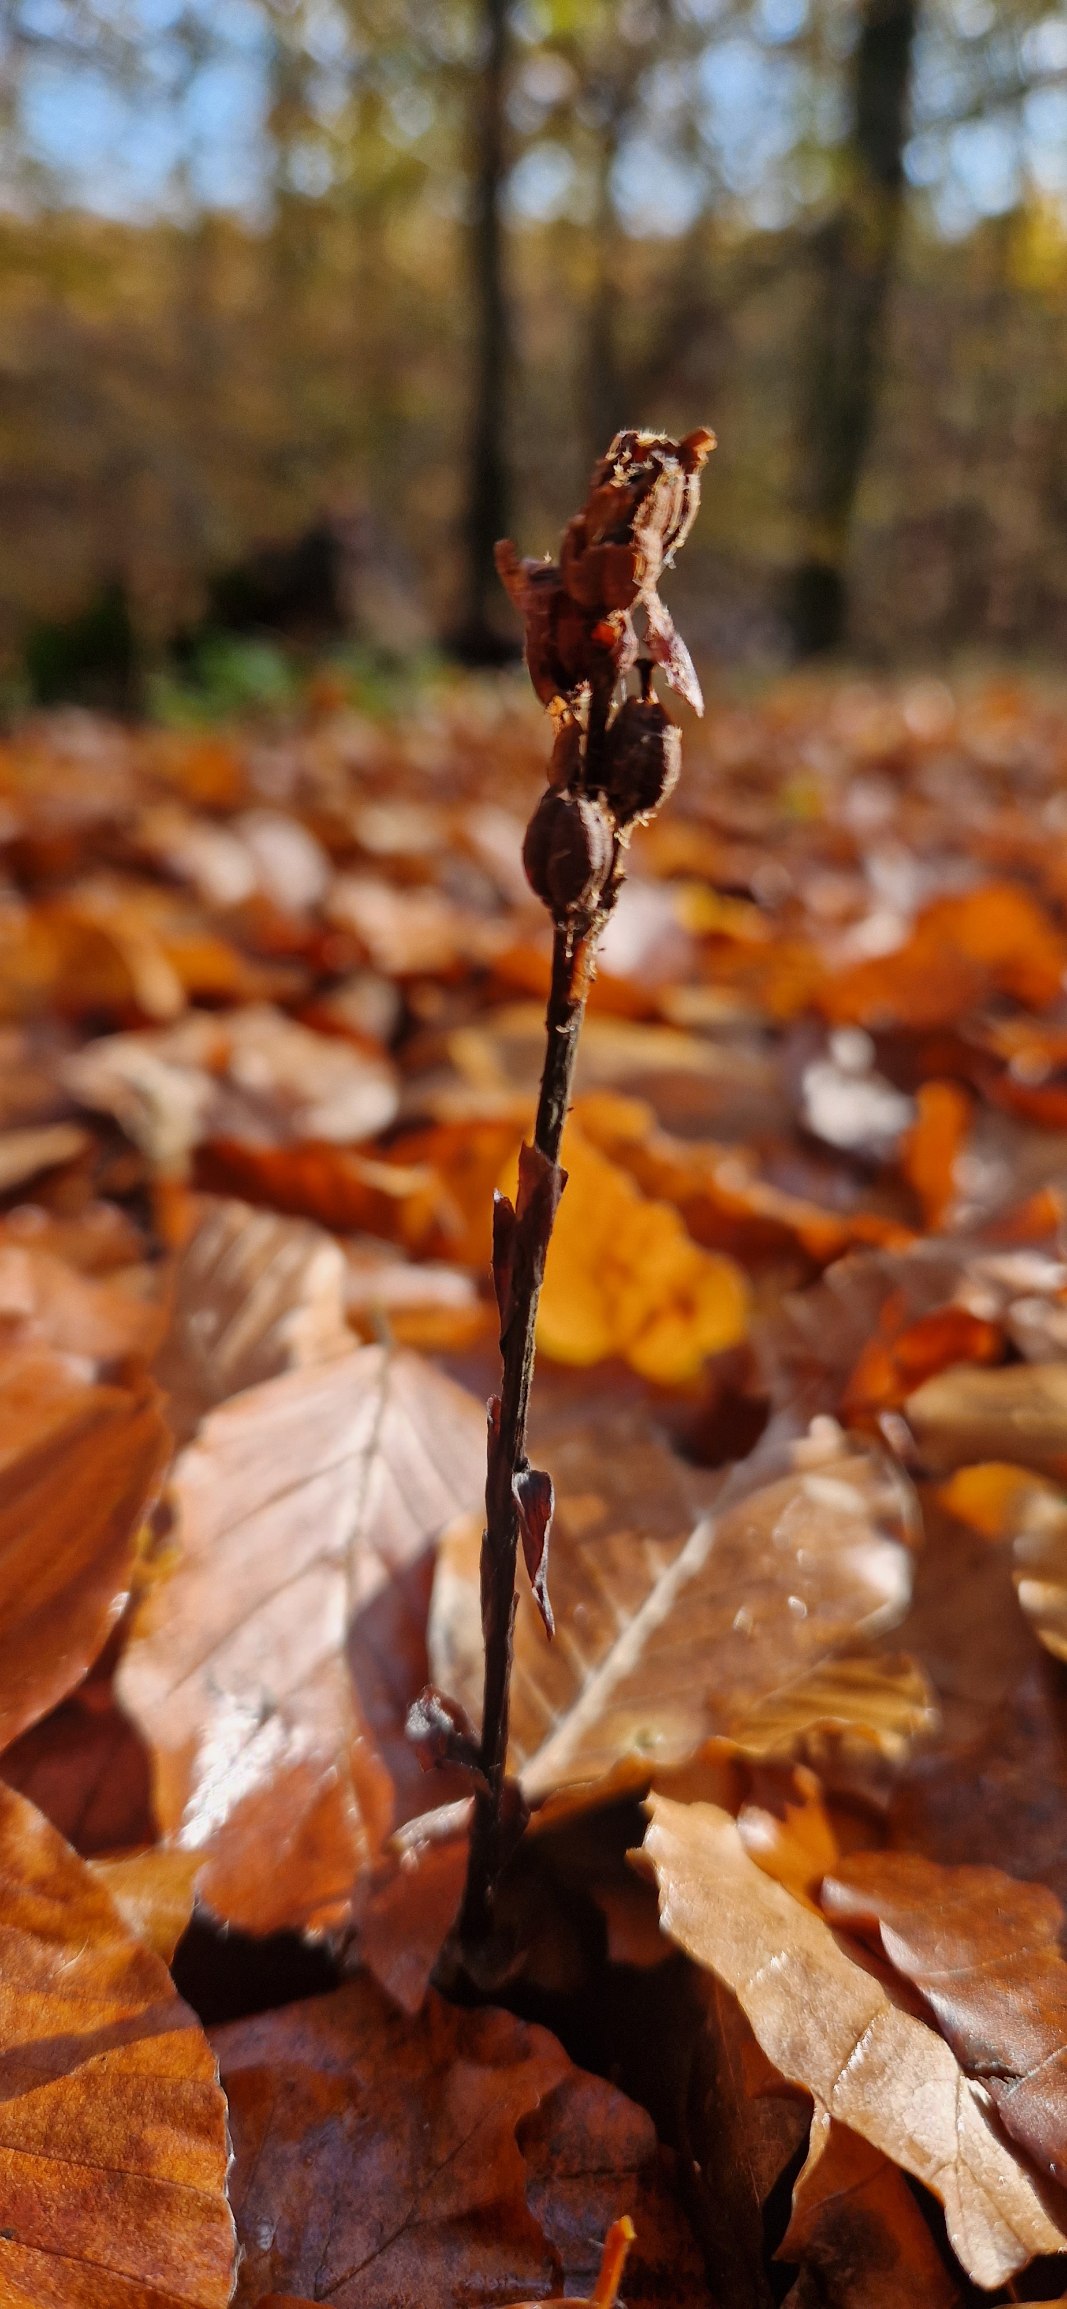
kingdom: Plantae
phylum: Tracheophyta
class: Magnoliopsida
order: Ericales
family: Ericaceae
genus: Hypopitys
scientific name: Hypopitys monotropa
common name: Snylterod
